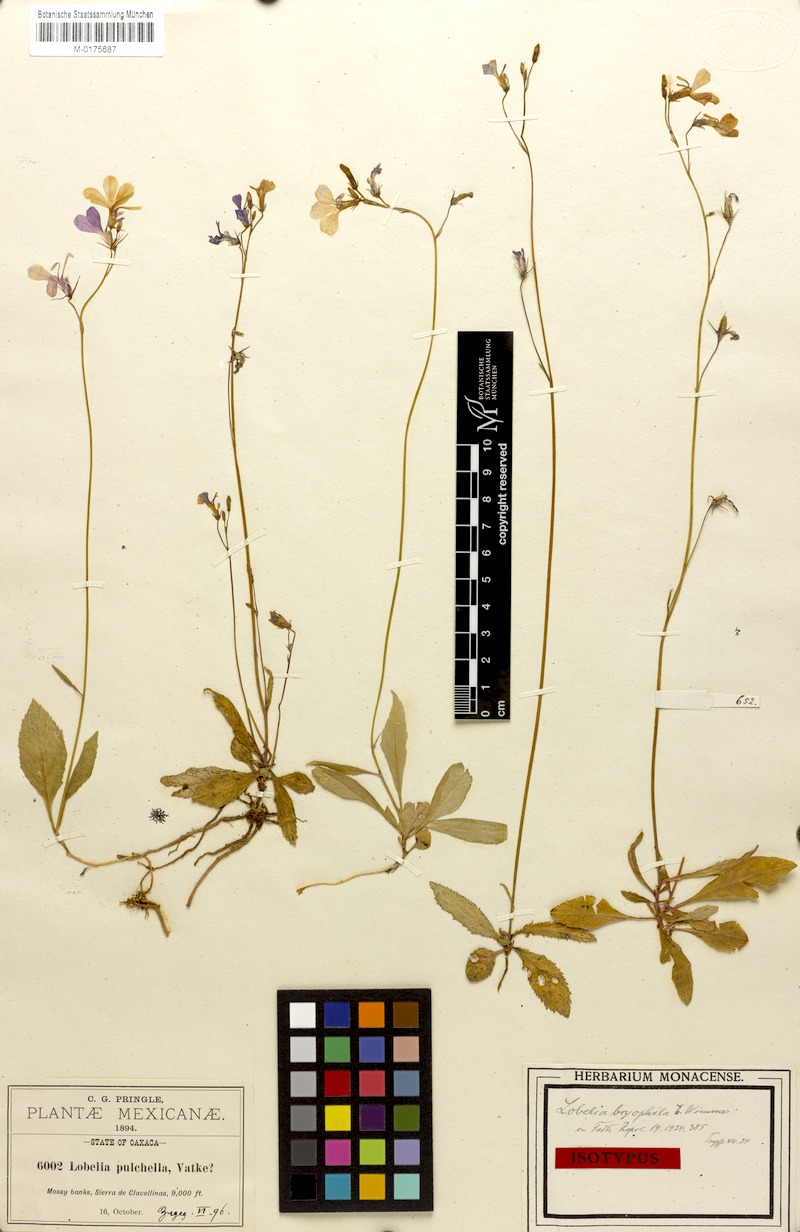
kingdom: Plantae
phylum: Tracheophyta
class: Magnoliopsida
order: Asterales
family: Campanulaceae
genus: Lobelia
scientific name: Lobelia pulchella
